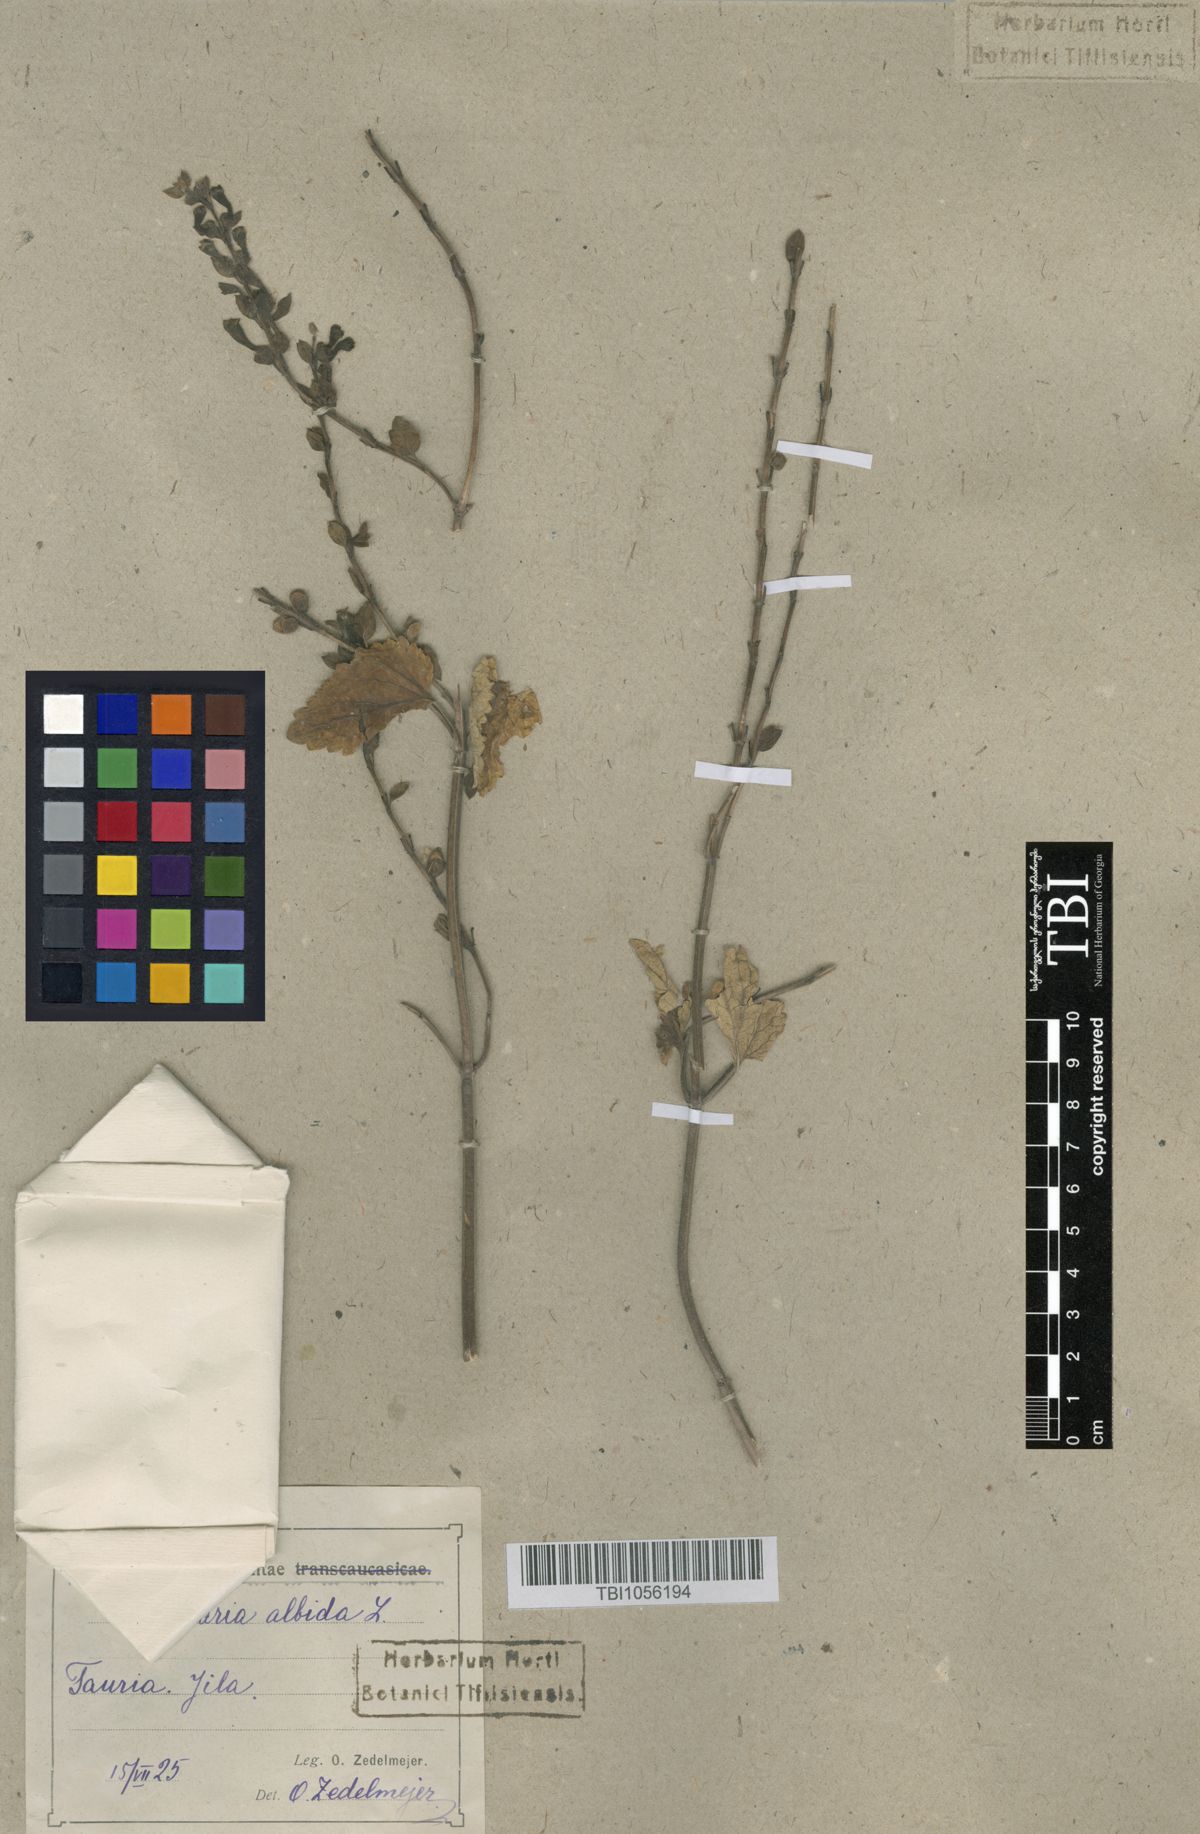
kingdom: Plantae
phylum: Tracheophyta
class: Magnoliopsida
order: Lamiales
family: Lamiaceae
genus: Scutellaria
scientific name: Scutellaria albida
